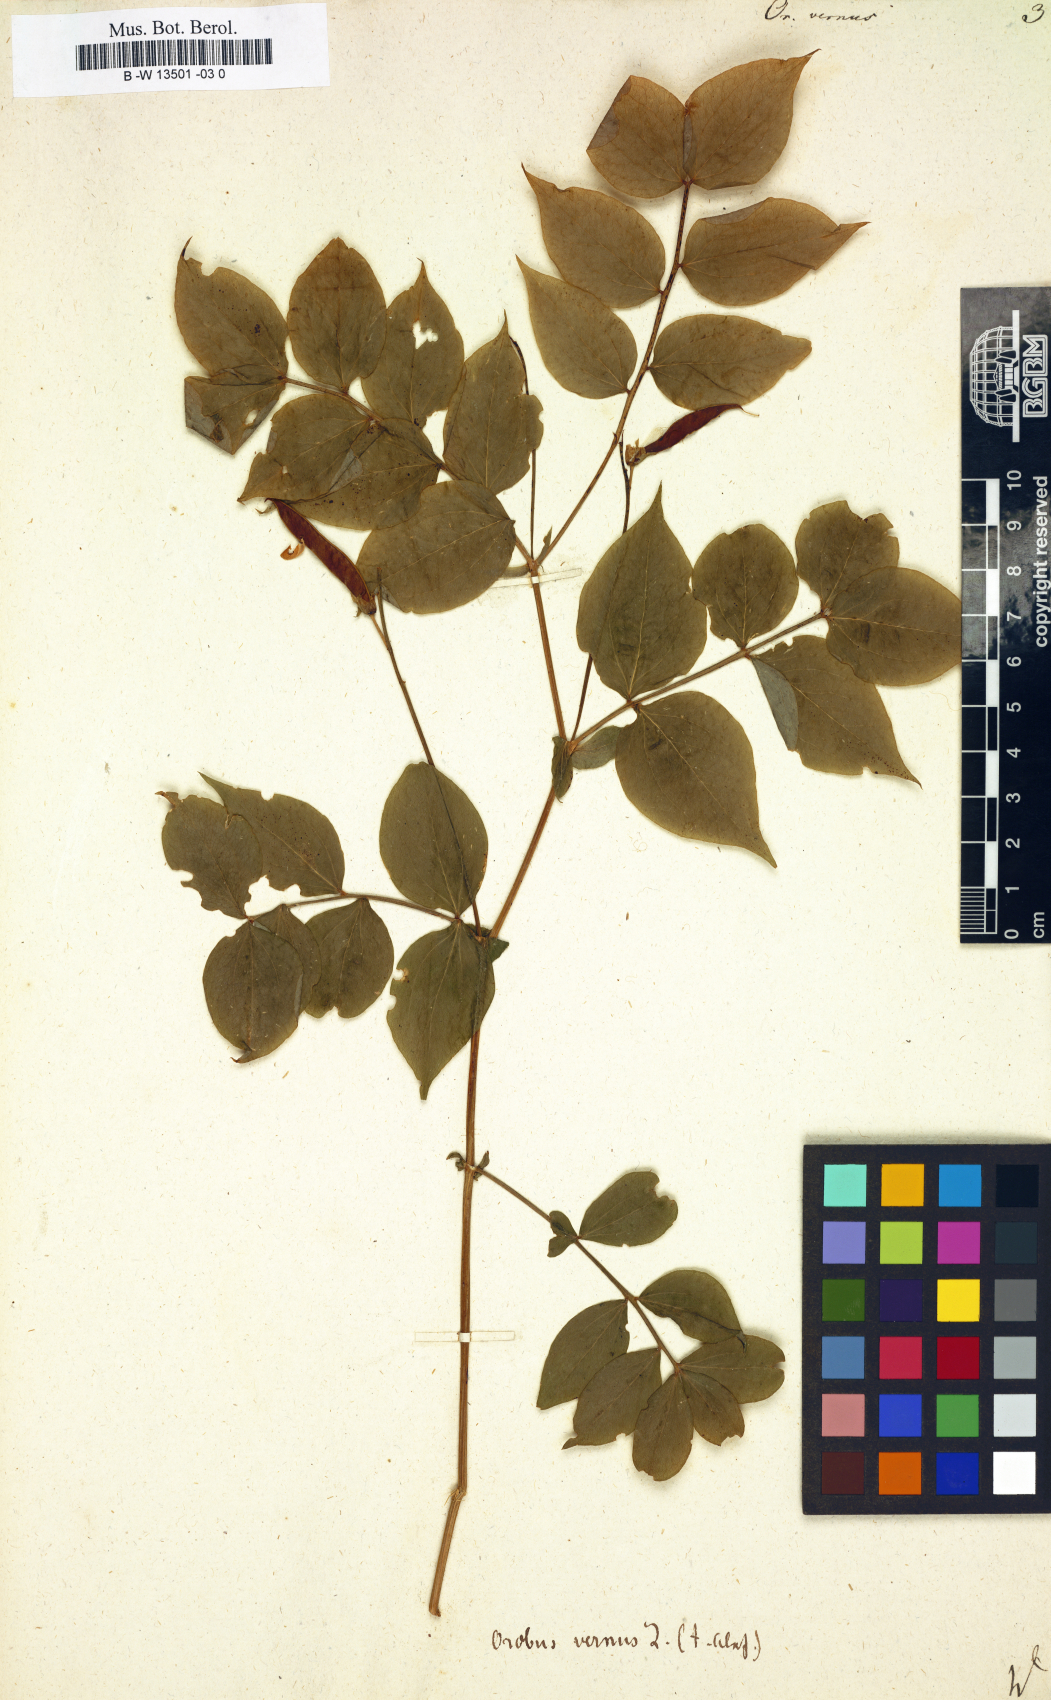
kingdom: Plantae
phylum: Tracheophyta
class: Magnoliopsida
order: Fabales
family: Fabaceae
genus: Lathyrus
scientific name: Lathyrus vernus
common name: Spring pea
